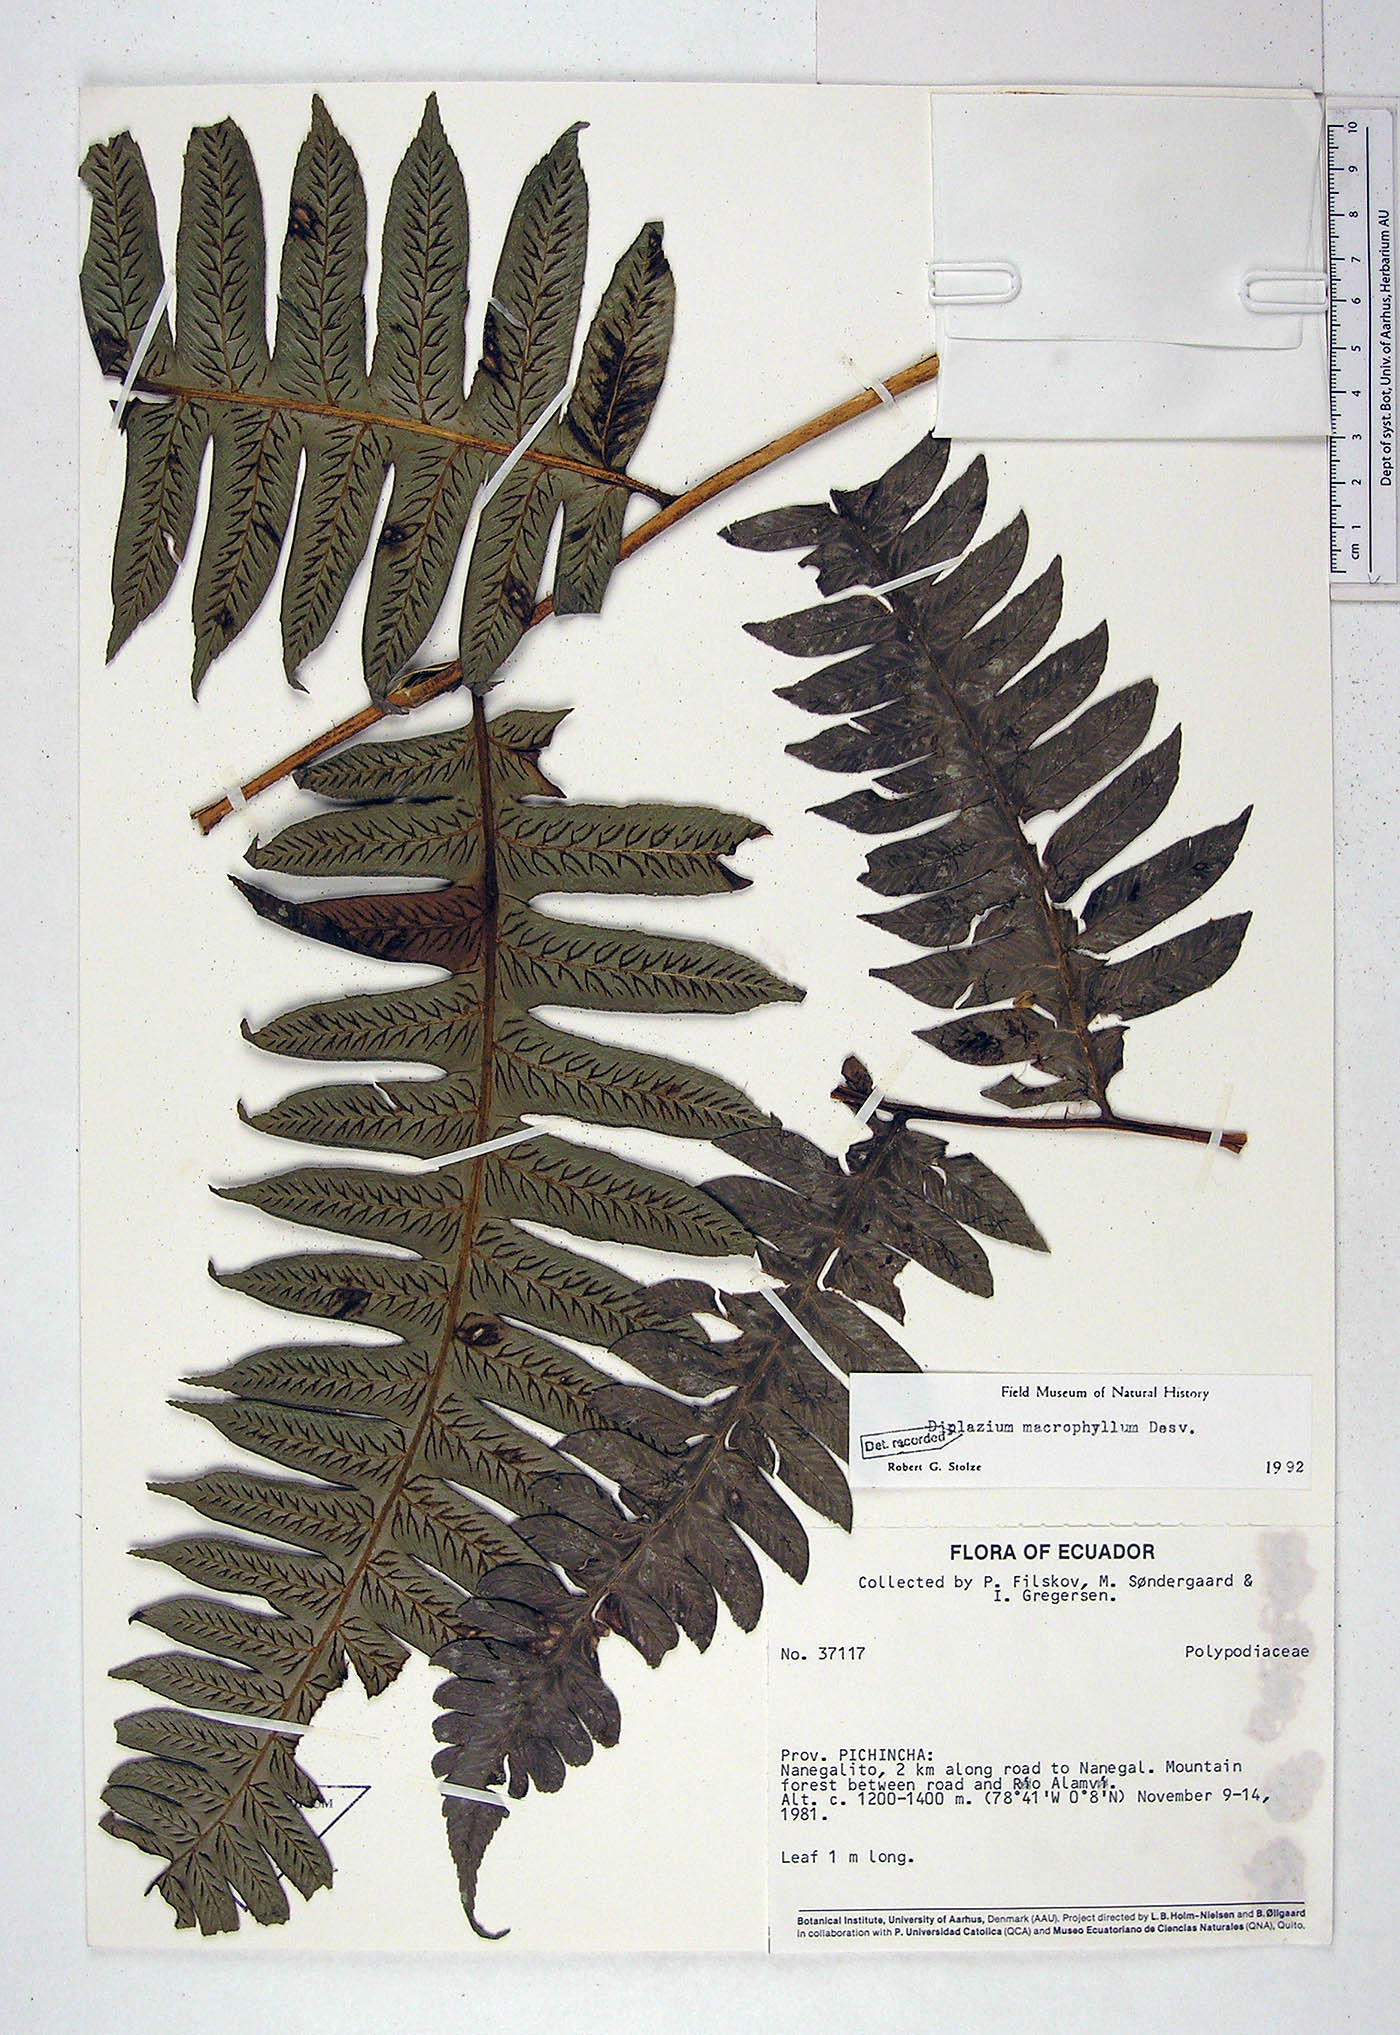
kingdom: Plantae
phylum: Tracheophyta
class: Polypodiopsida
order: Polypodiales
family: Athyriaceae
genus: Diplazium
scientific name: Diplazium macrophyllum
